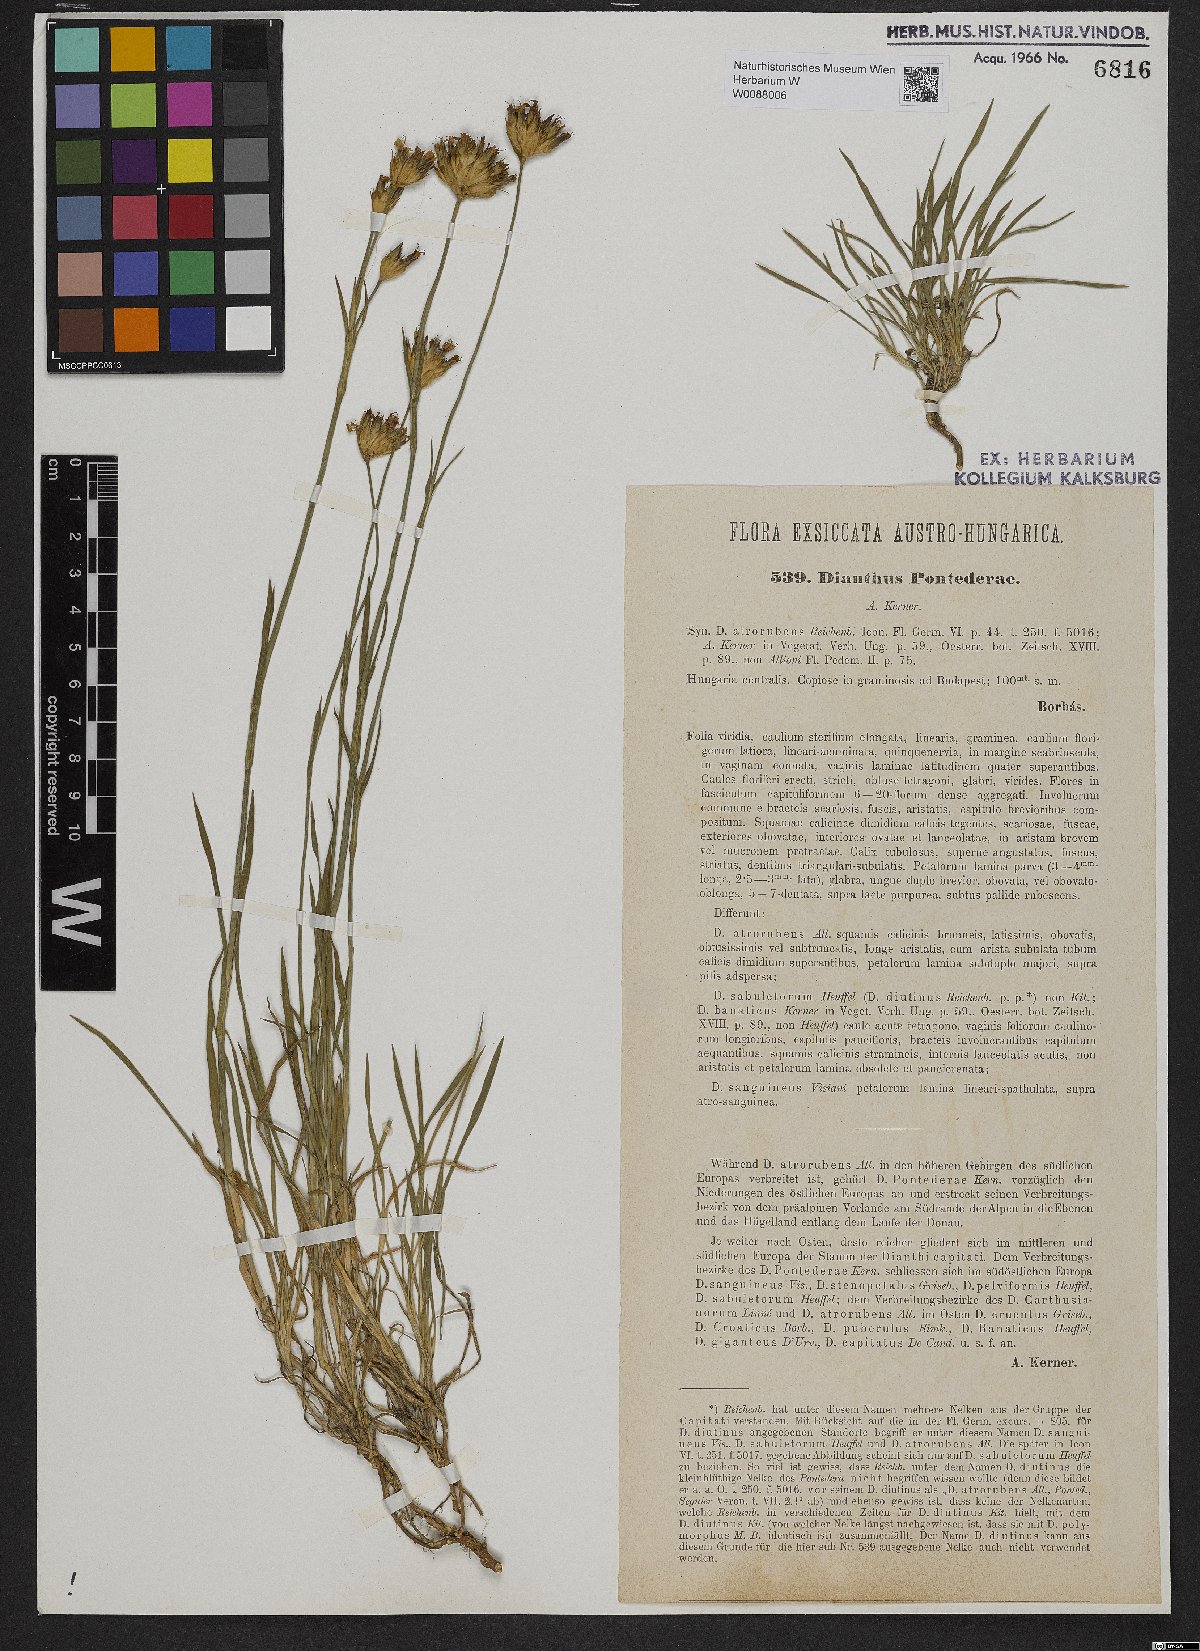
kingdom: Plantae
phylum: Tracheophyta
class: Magnoliopsida
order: Caryophyllales
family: Caryophyllaceae
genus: Dianthus
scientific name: Dianthus pontederae
